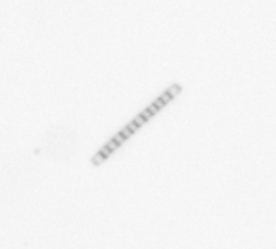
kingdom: Chromista
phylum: Ochrophyta
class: Bacillariophyceae
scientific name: Bacillariophyceae
